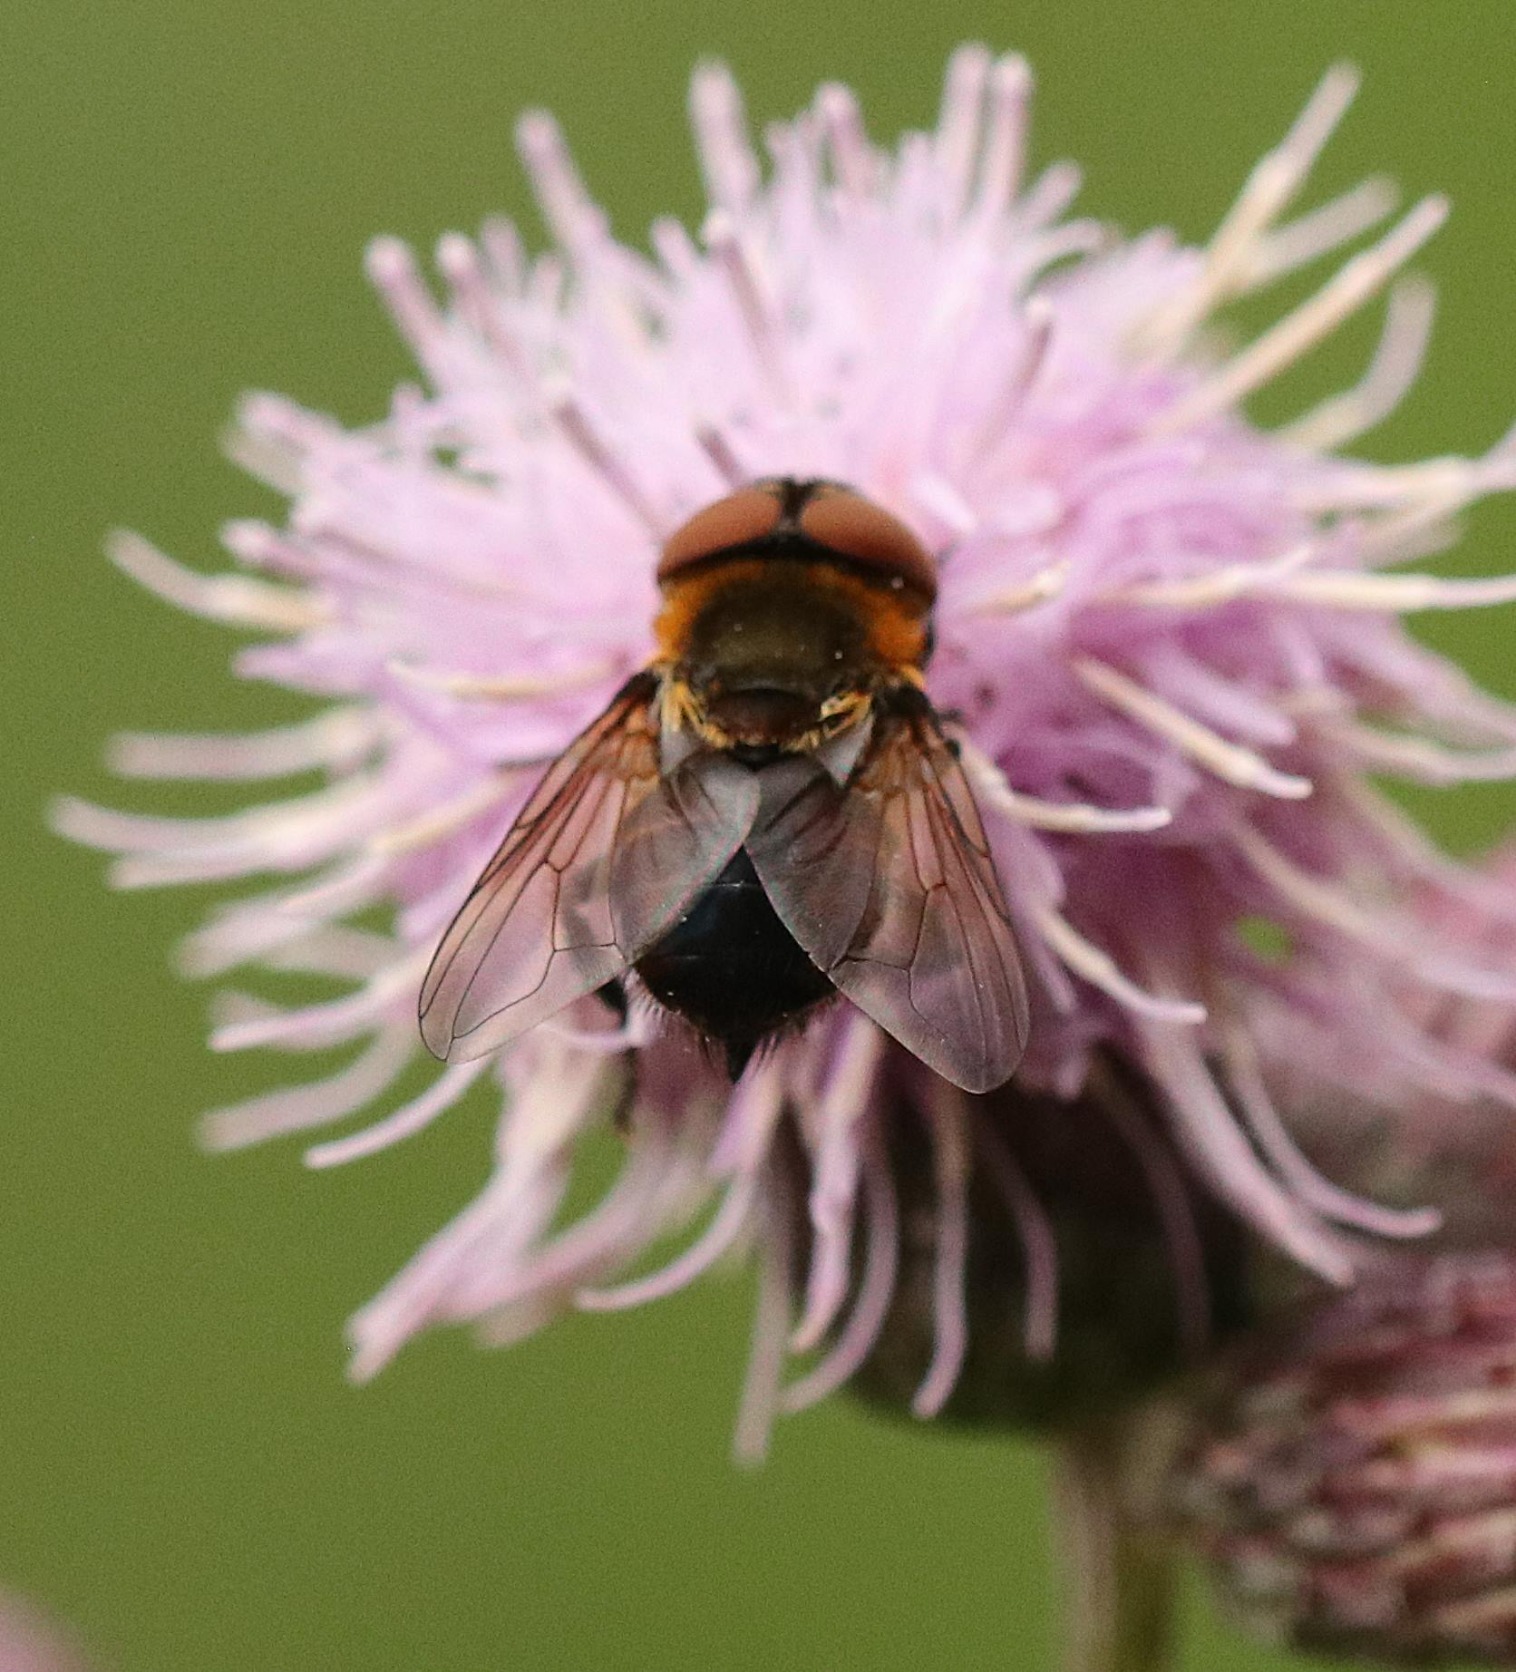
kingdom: Animalia
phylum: Arthropoda
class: Insecta
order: Diptera
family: Tachinidae
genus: Phasia
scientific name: Phasia hemiptera
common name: Blåvinget pragtsnylteflue
